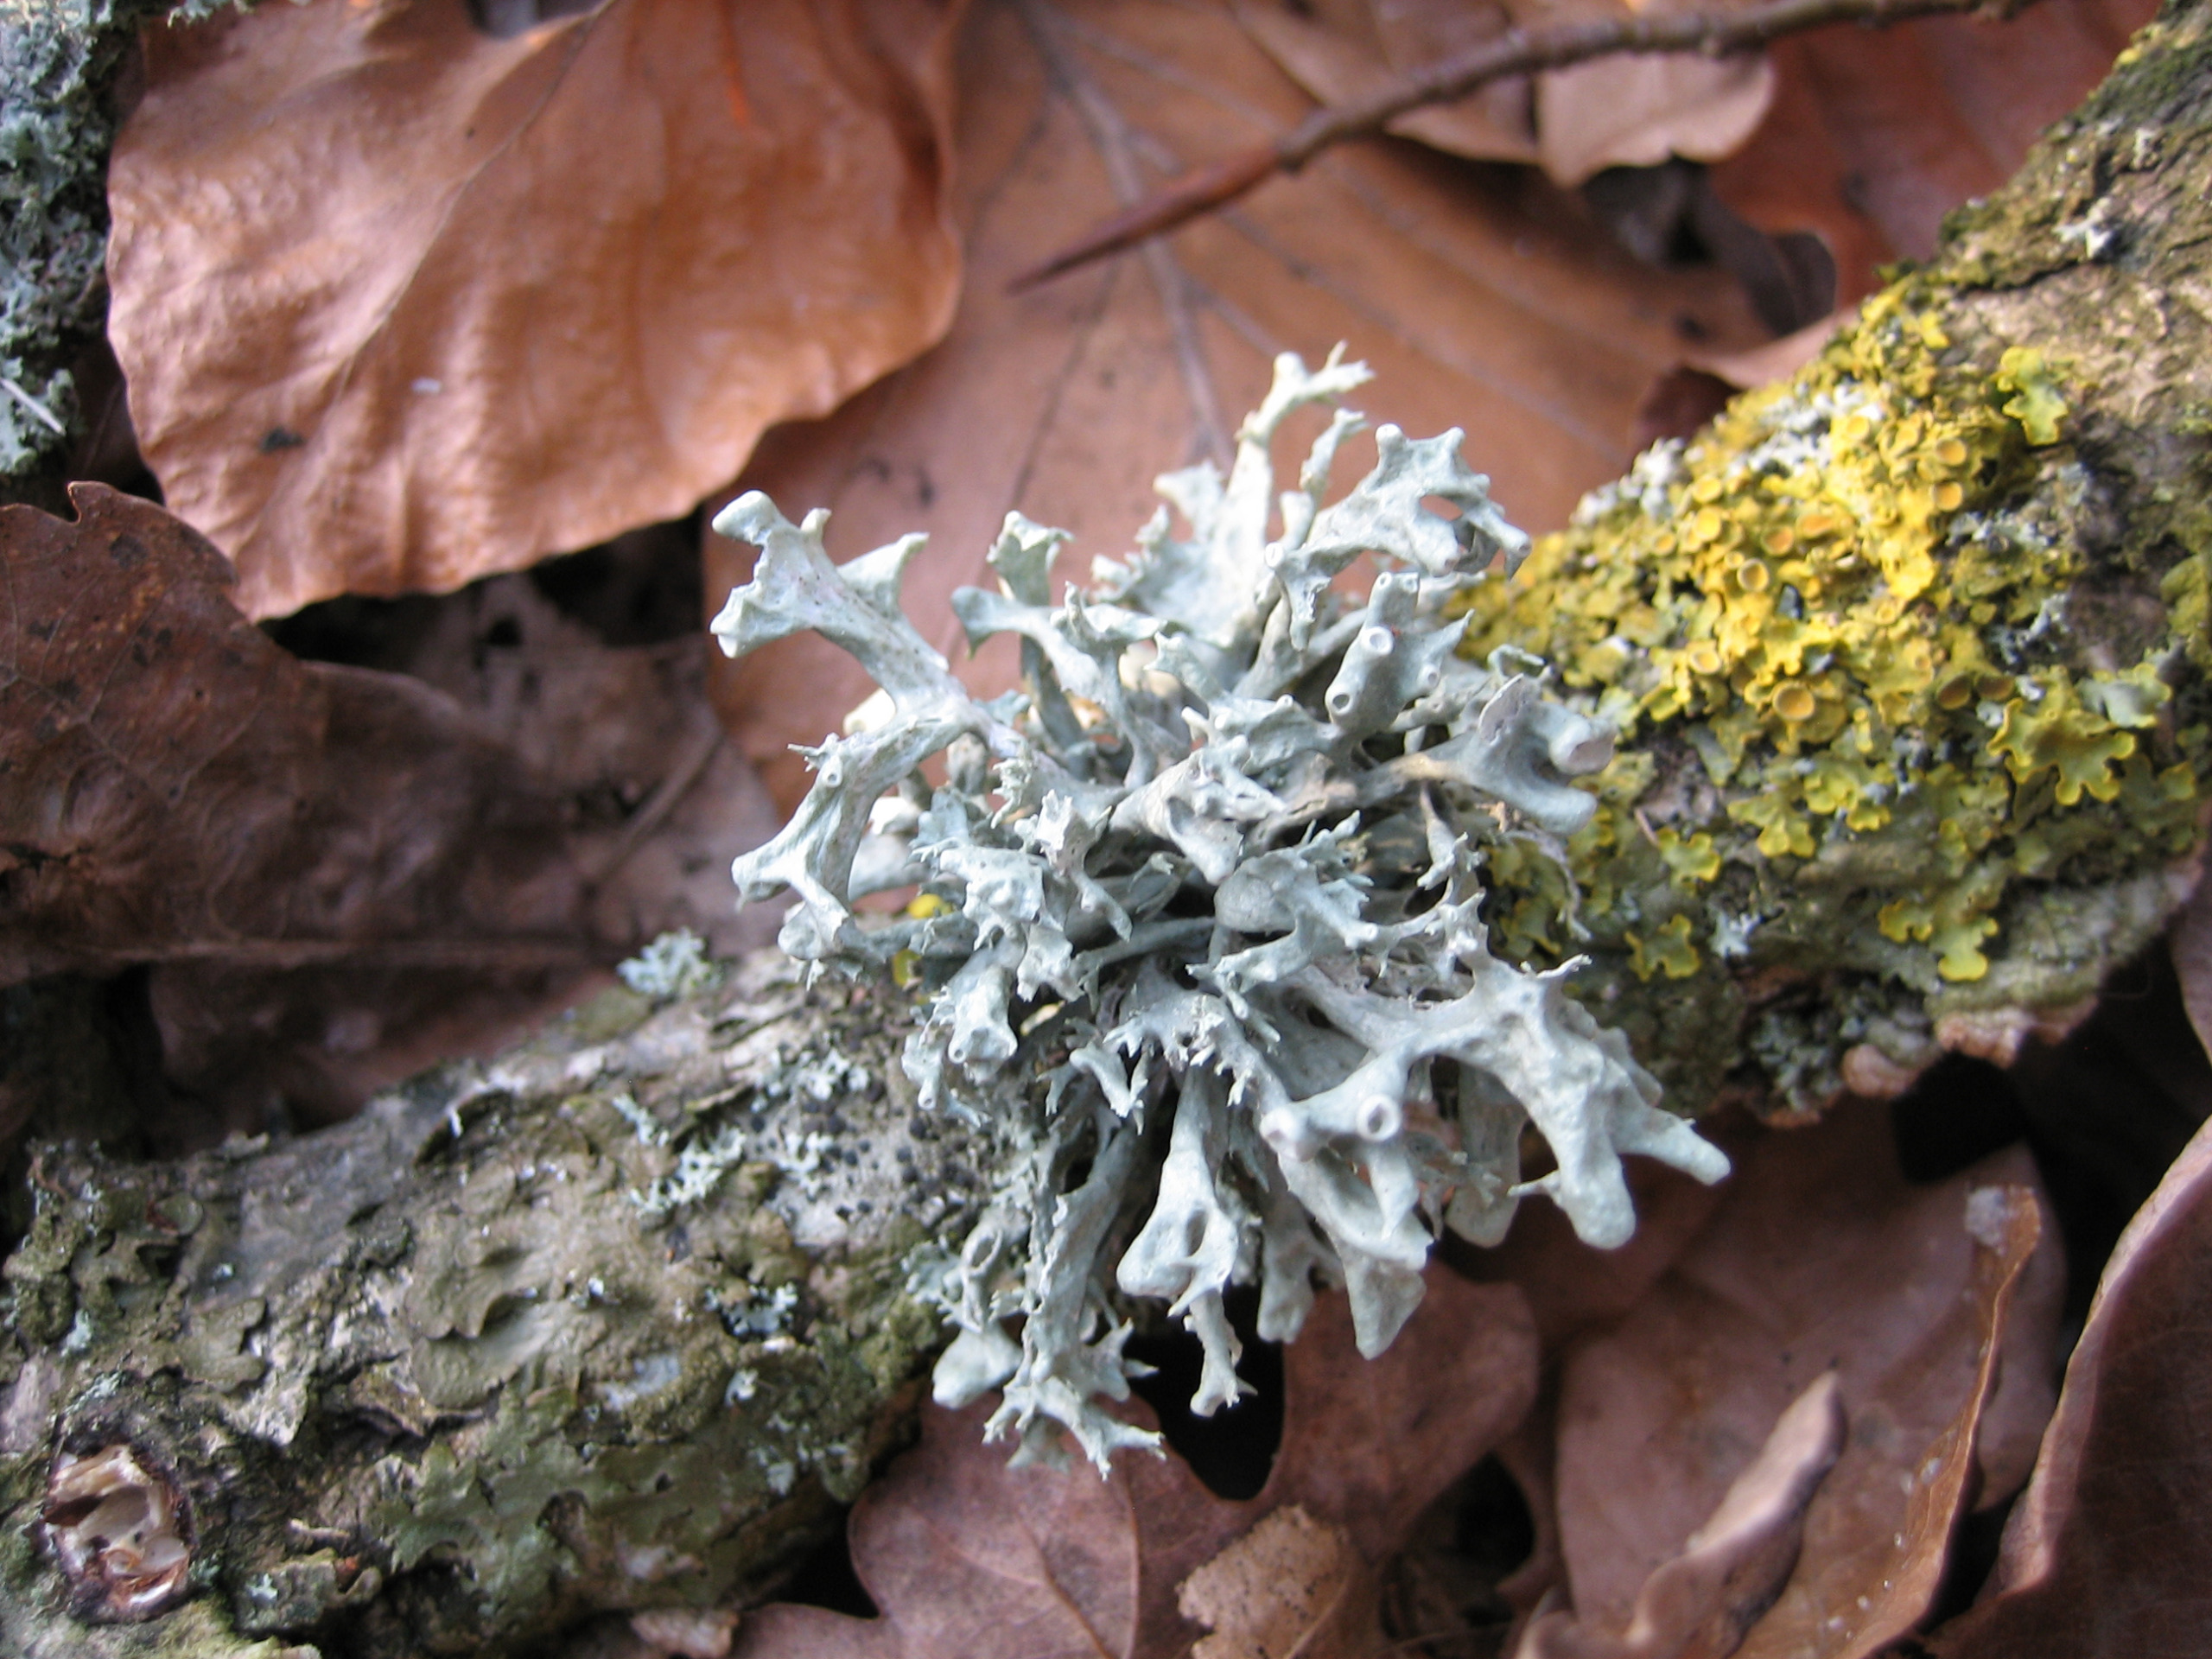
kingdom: Fungi
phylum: Ascomycota
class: Lecanoromycetes
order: Lecanorales
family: Ramalinaceae
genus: Ramalina
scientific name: Ramalina fastigiata
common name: Tue-grenlav
